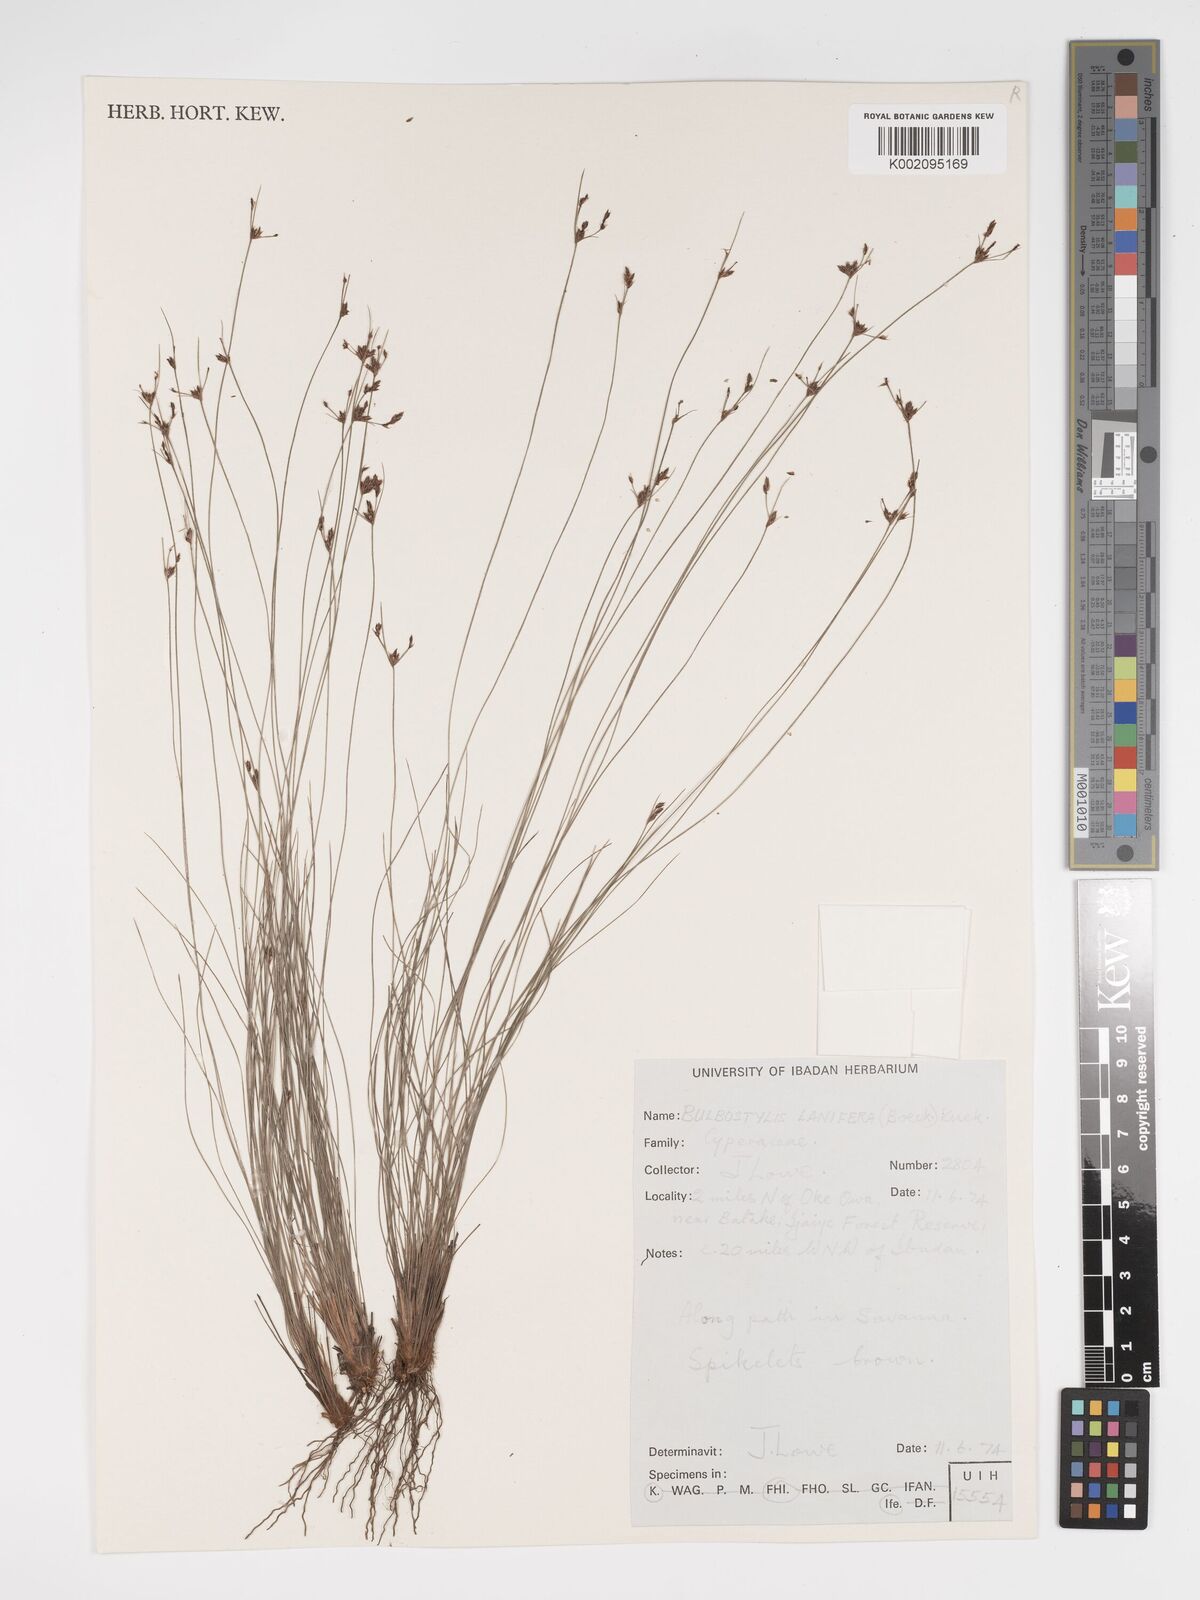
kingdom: Plantae
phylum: Tracheophyta
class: Liliopsida
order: Poales
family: Cyperaceae
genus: Bulbostylis
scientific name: Bulbostylis lanifera
